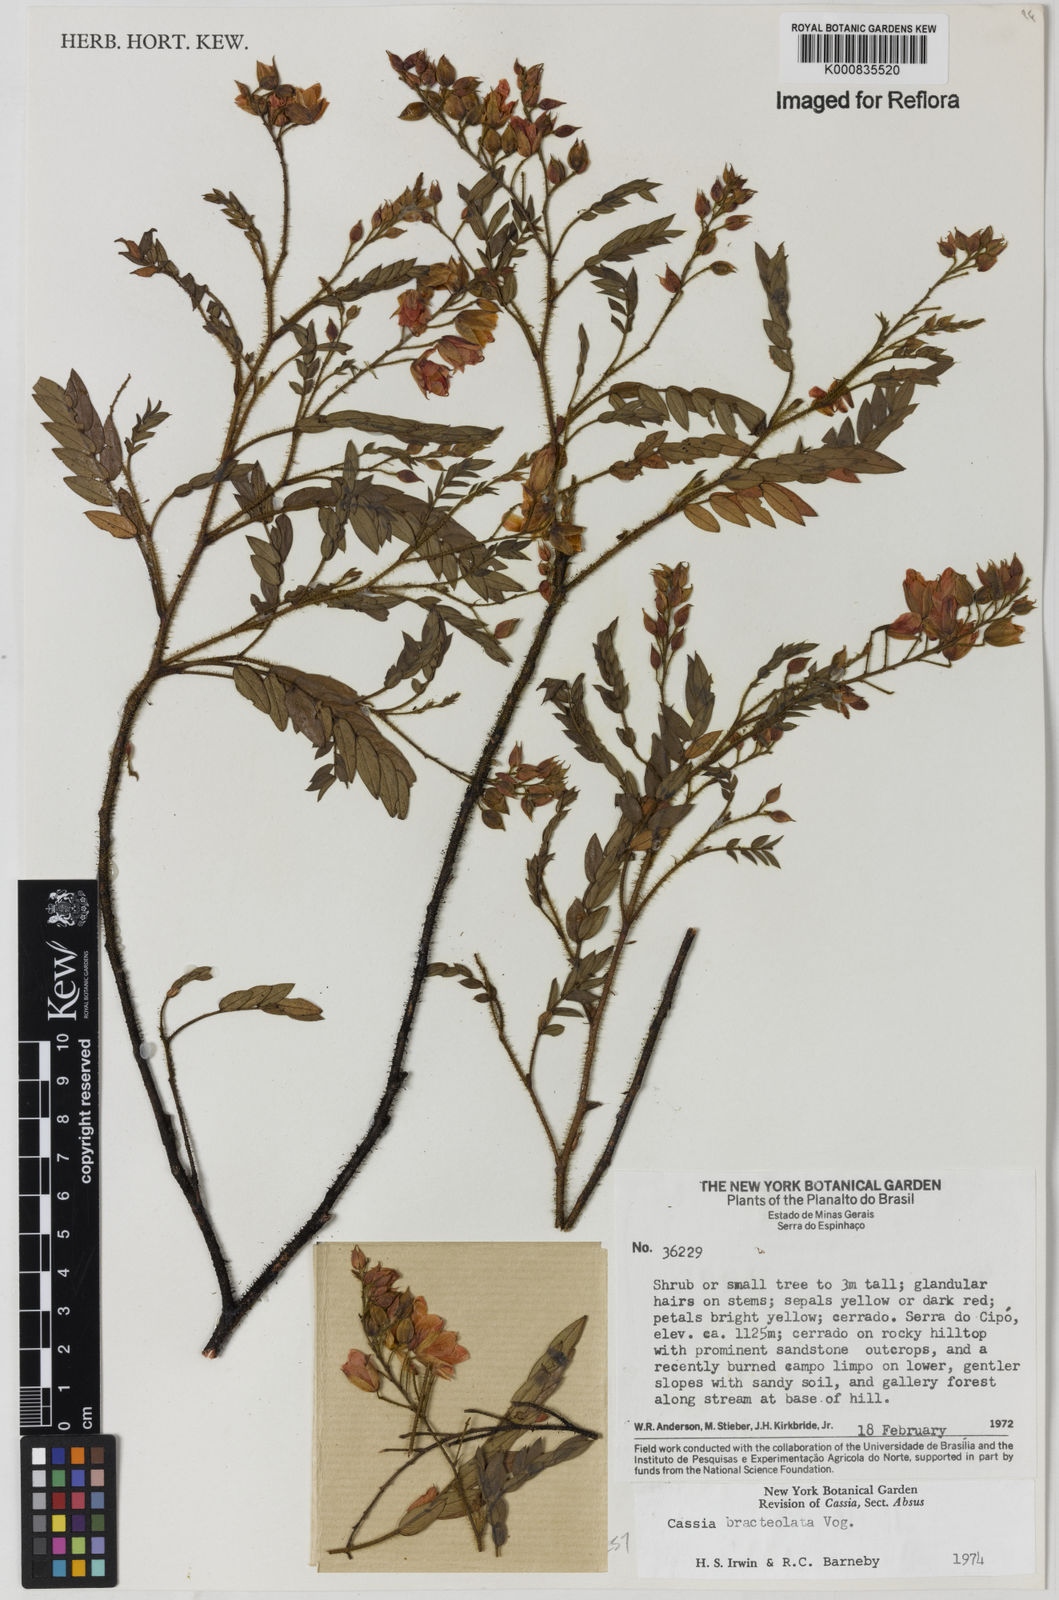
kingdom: Plantae
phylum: Tracheophyta
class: Magnoliopsida
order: Fabales
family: Fabaceae
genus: Chamaecrista
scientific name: Chamaecrista bracteolata
